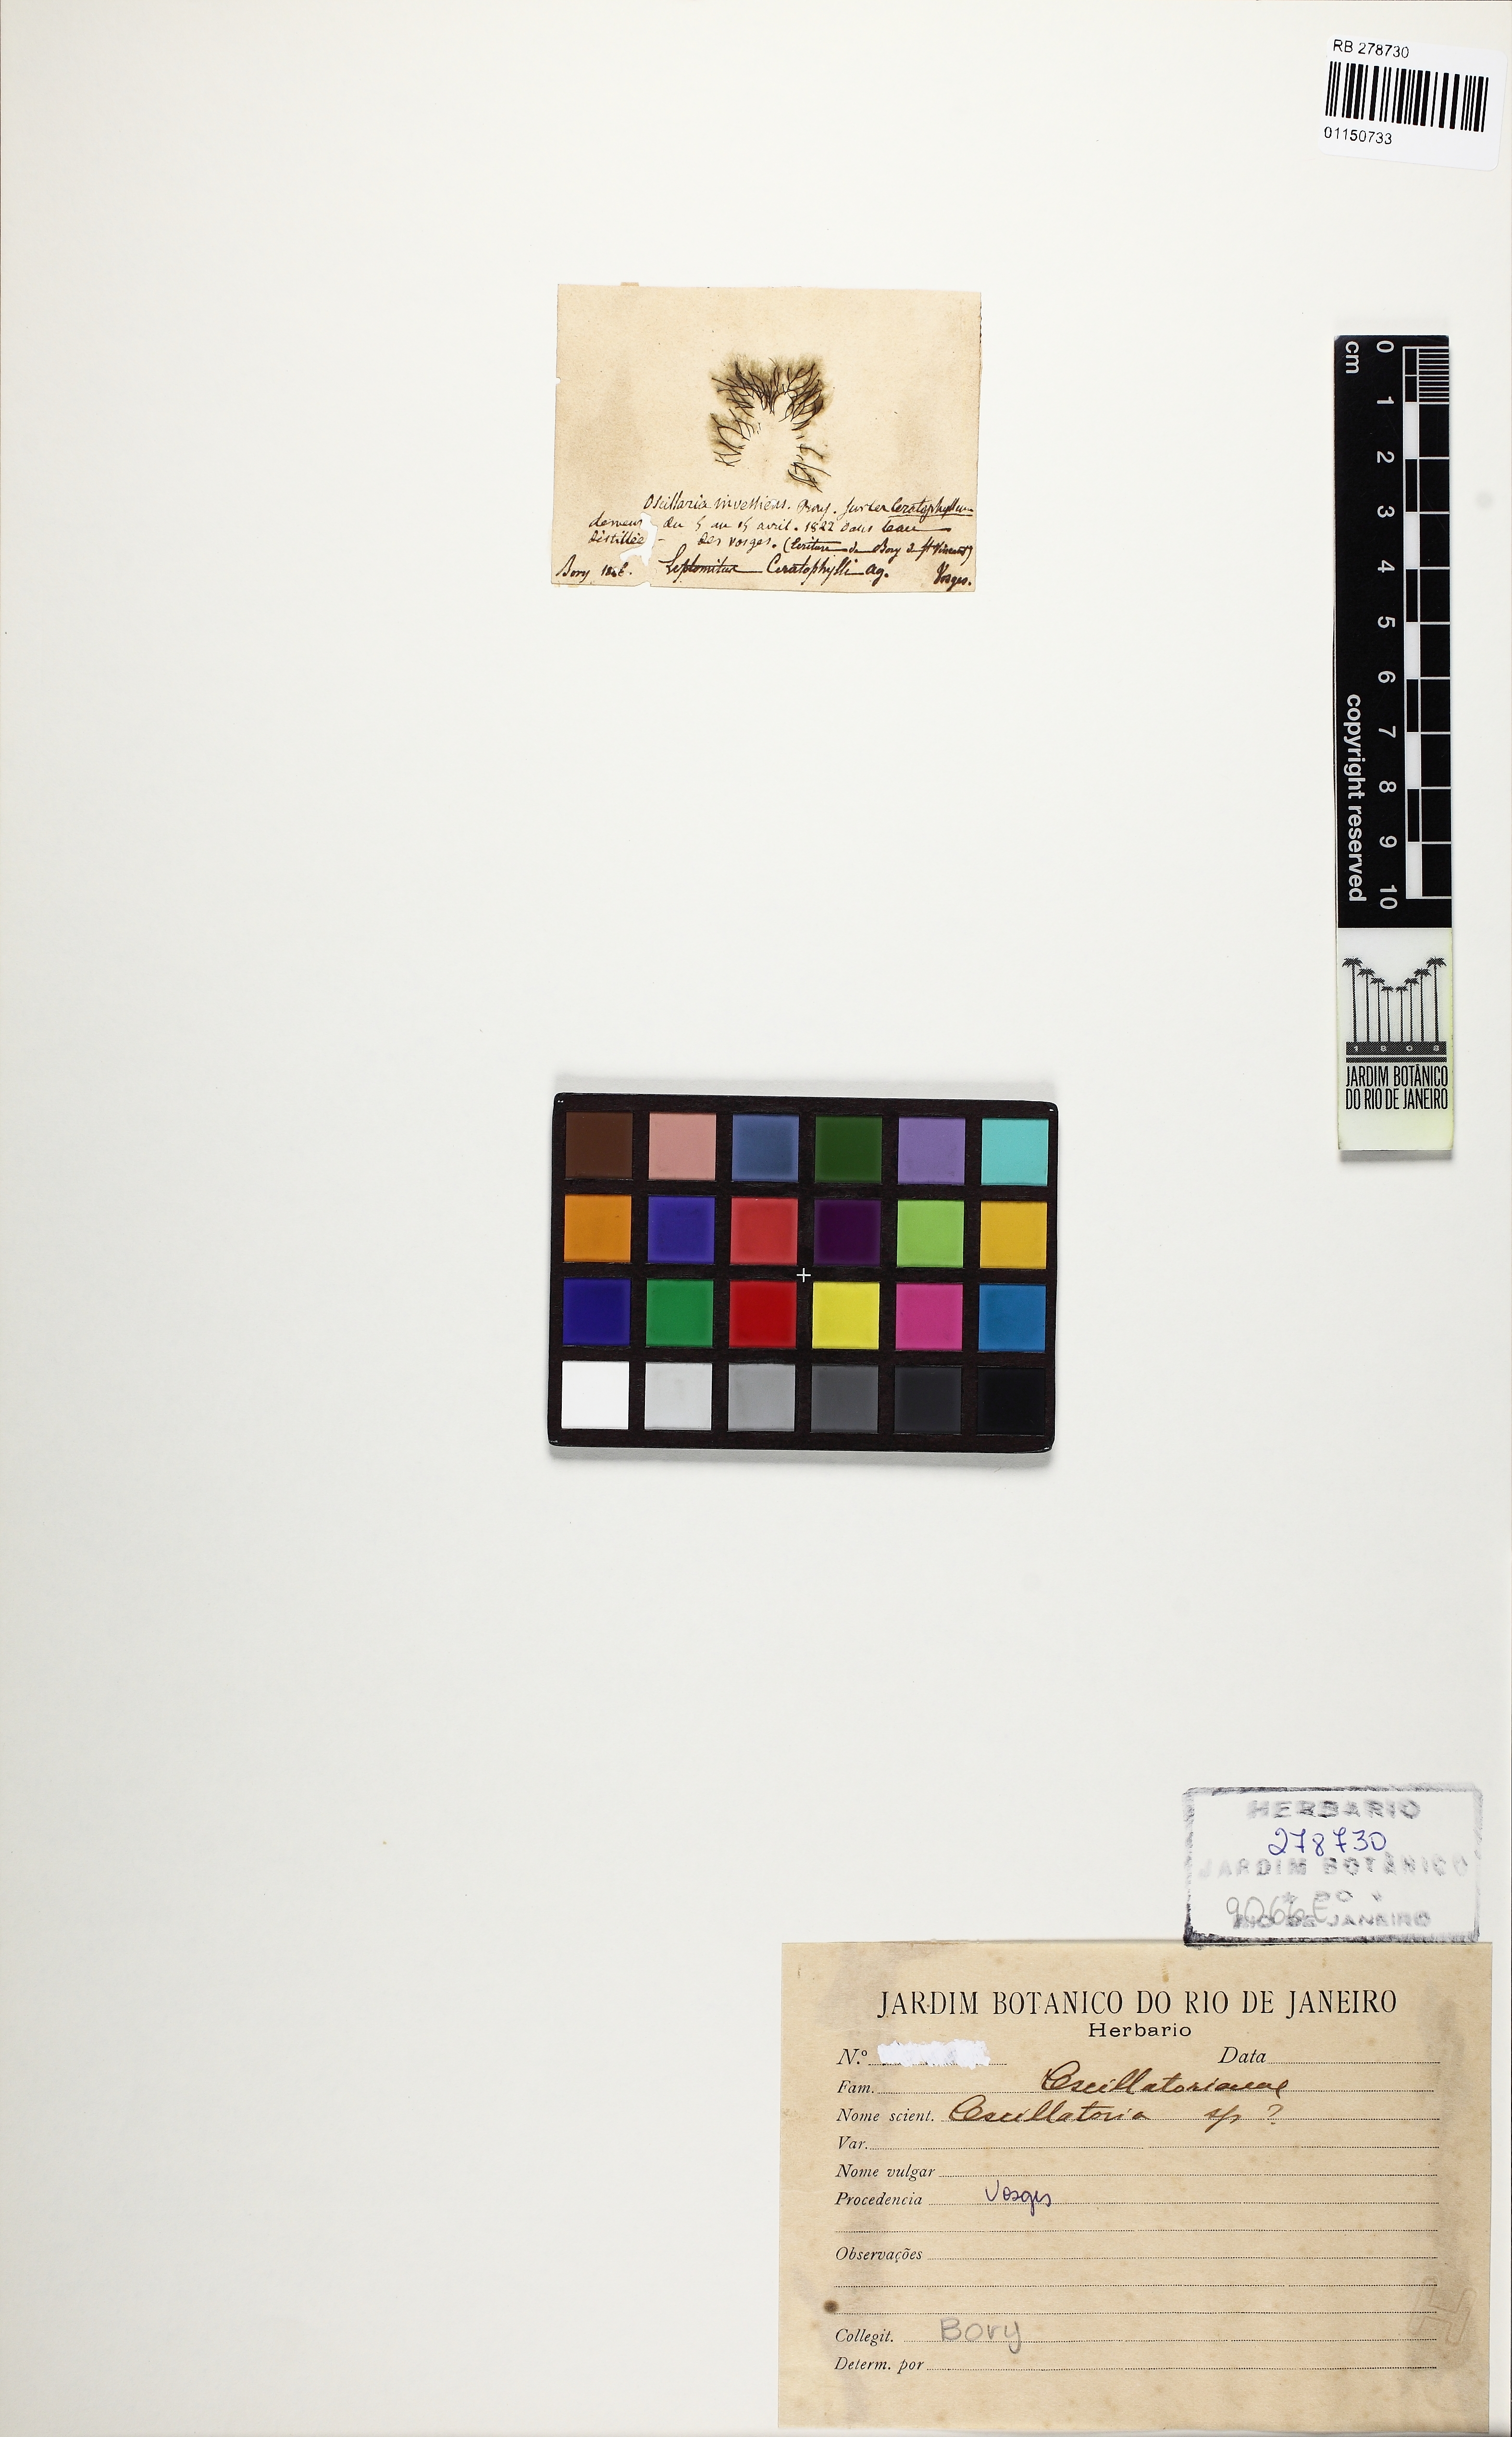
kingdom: Bacteria
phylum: Cyanobacteria
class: Cyanobacteriia
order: Cyanobacteriales
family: Oscillatoriaceae
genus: Oscillatoria
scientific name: Oscillatoria
